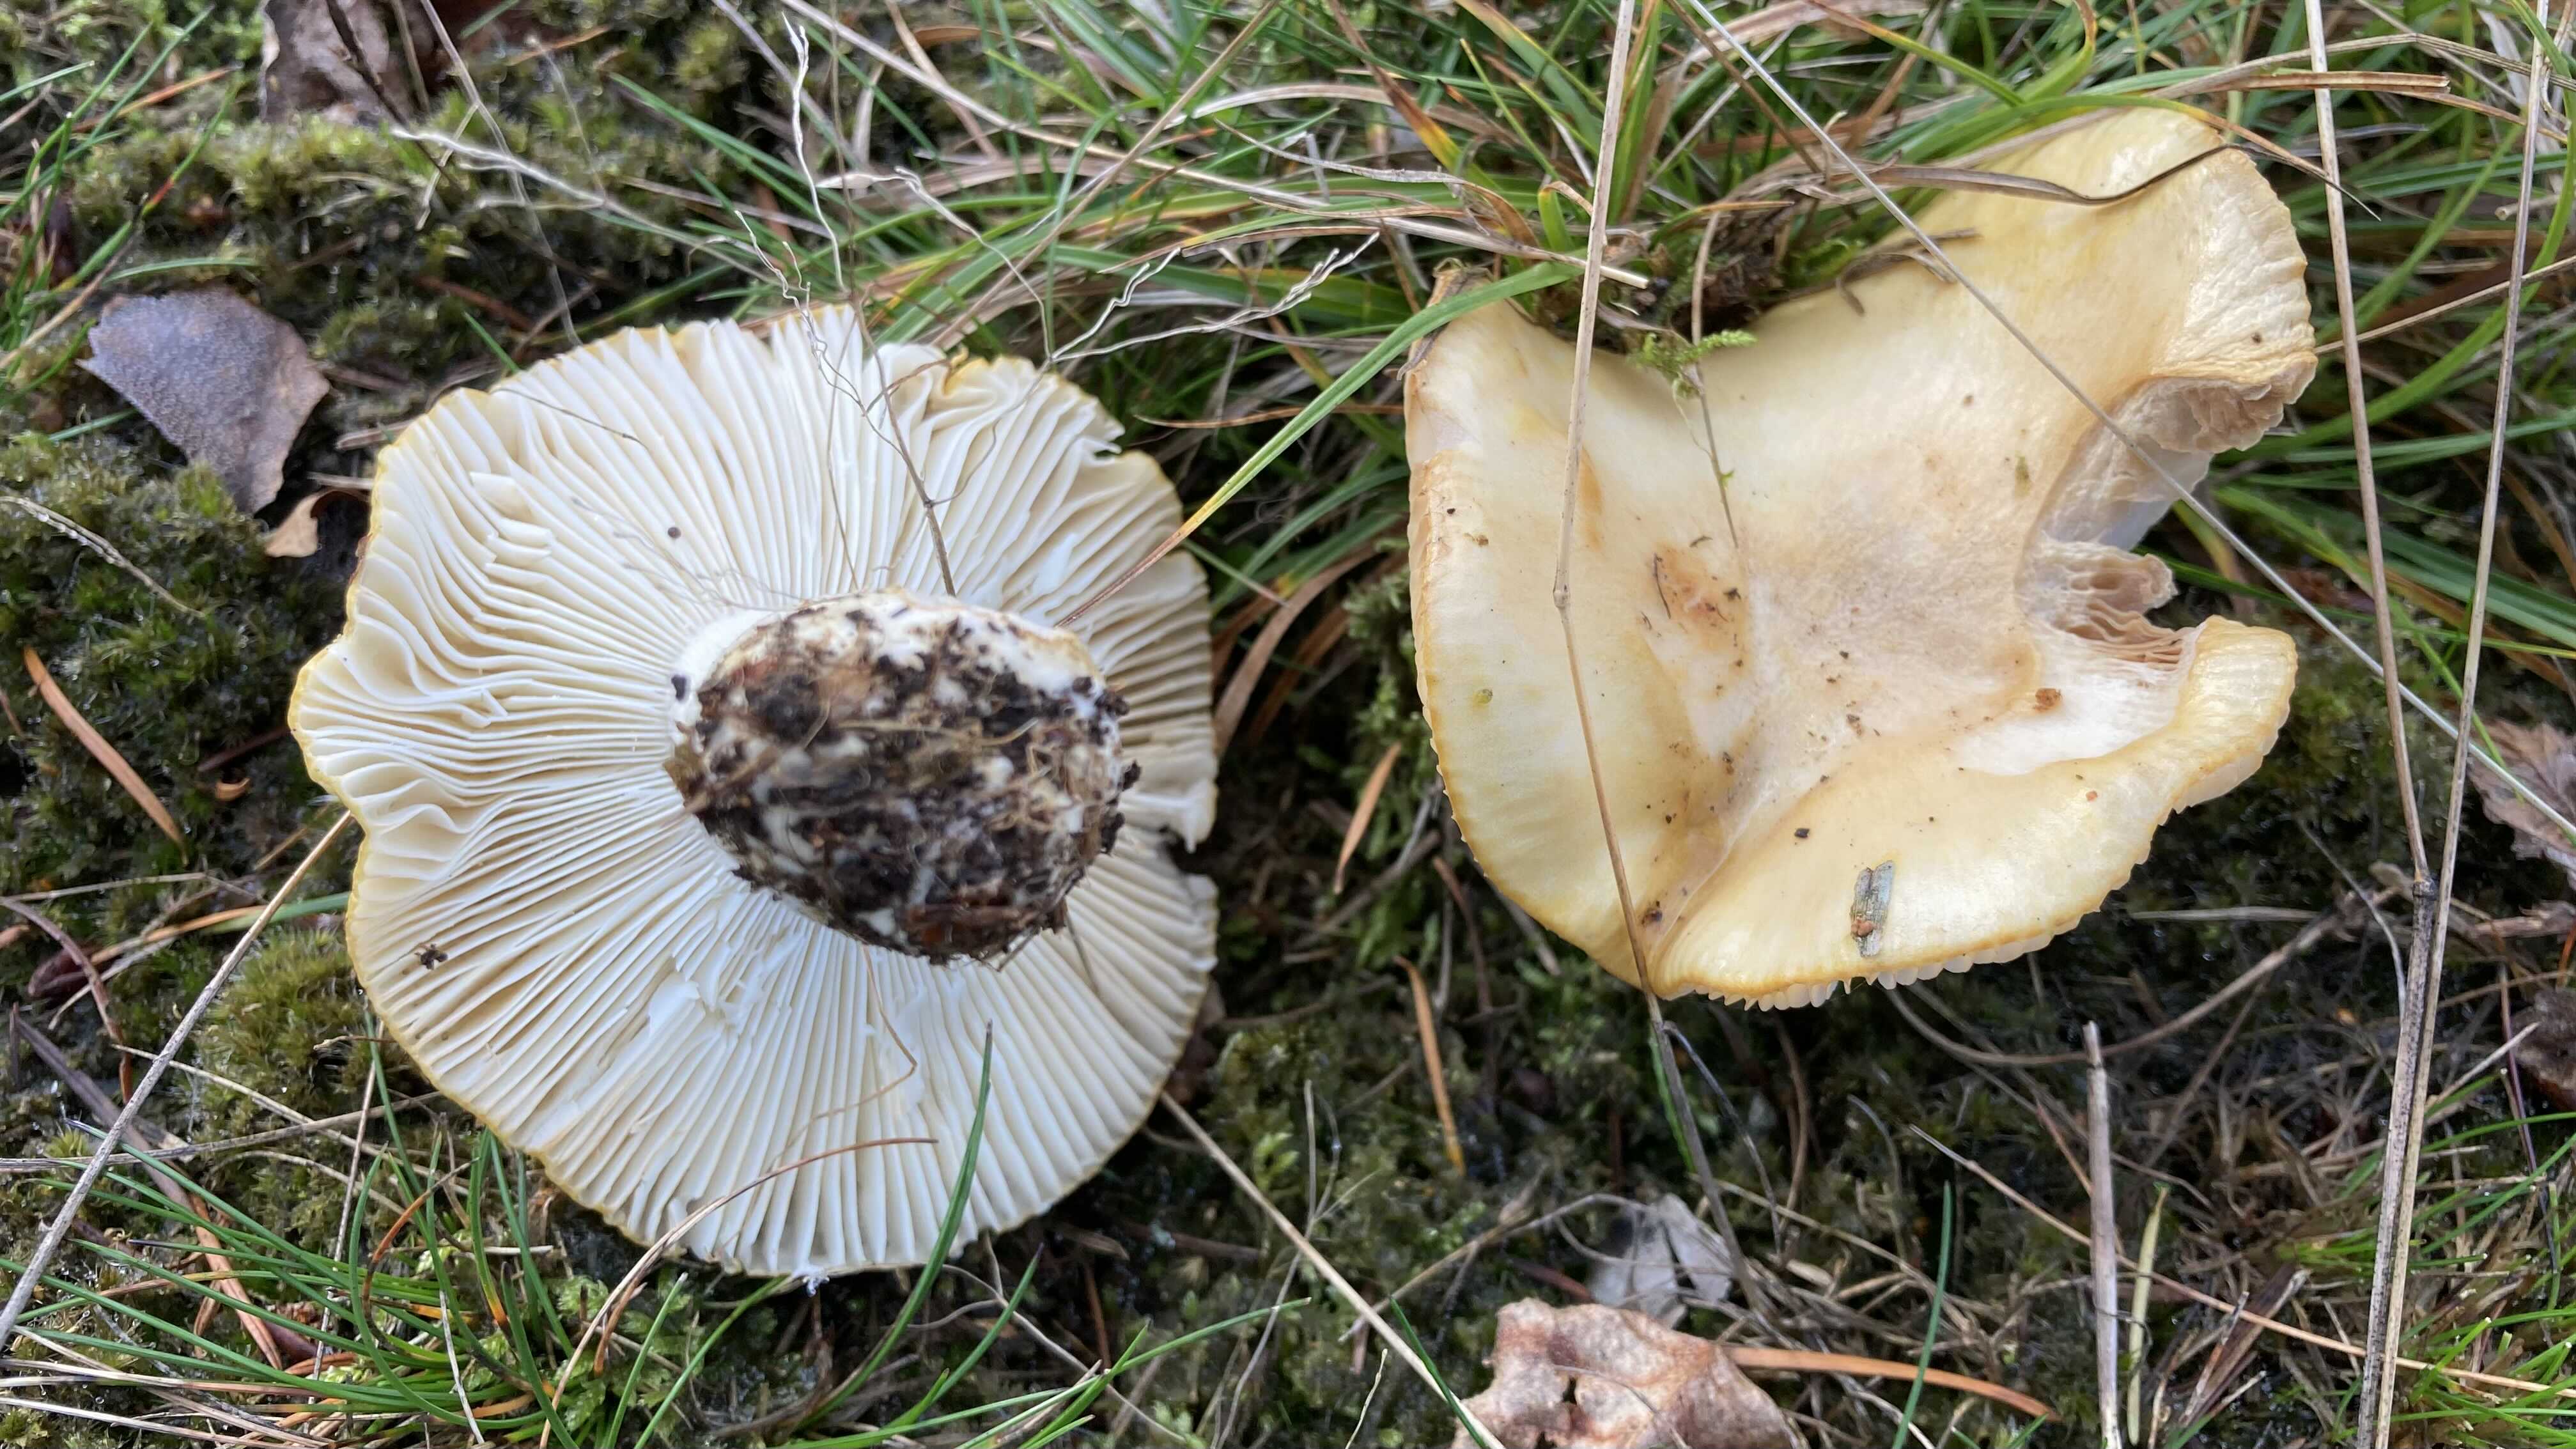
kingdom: Fungi
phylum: Basidiomycota
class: Agaricomycetes
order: Russulales
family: Russulaceae
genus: Russula
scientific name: Russula ochroleuca
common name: okkergul skørhat
